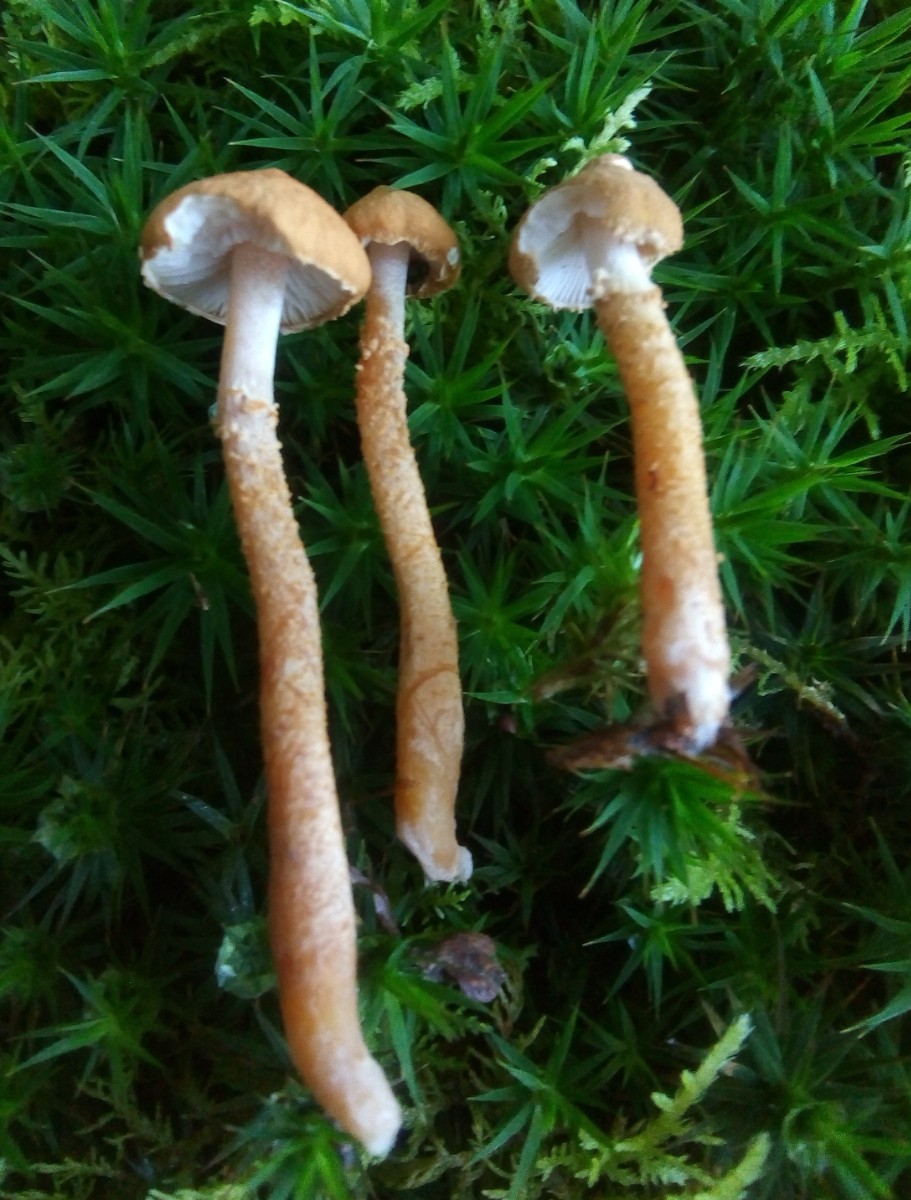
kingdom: Fungi
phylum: Basidiomycota
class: Agaricomycetes
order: Agaricales
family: Tricholomataceae
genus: Cystoderma
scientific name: Cystoderma amianthinum
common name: okkergul grynhat
